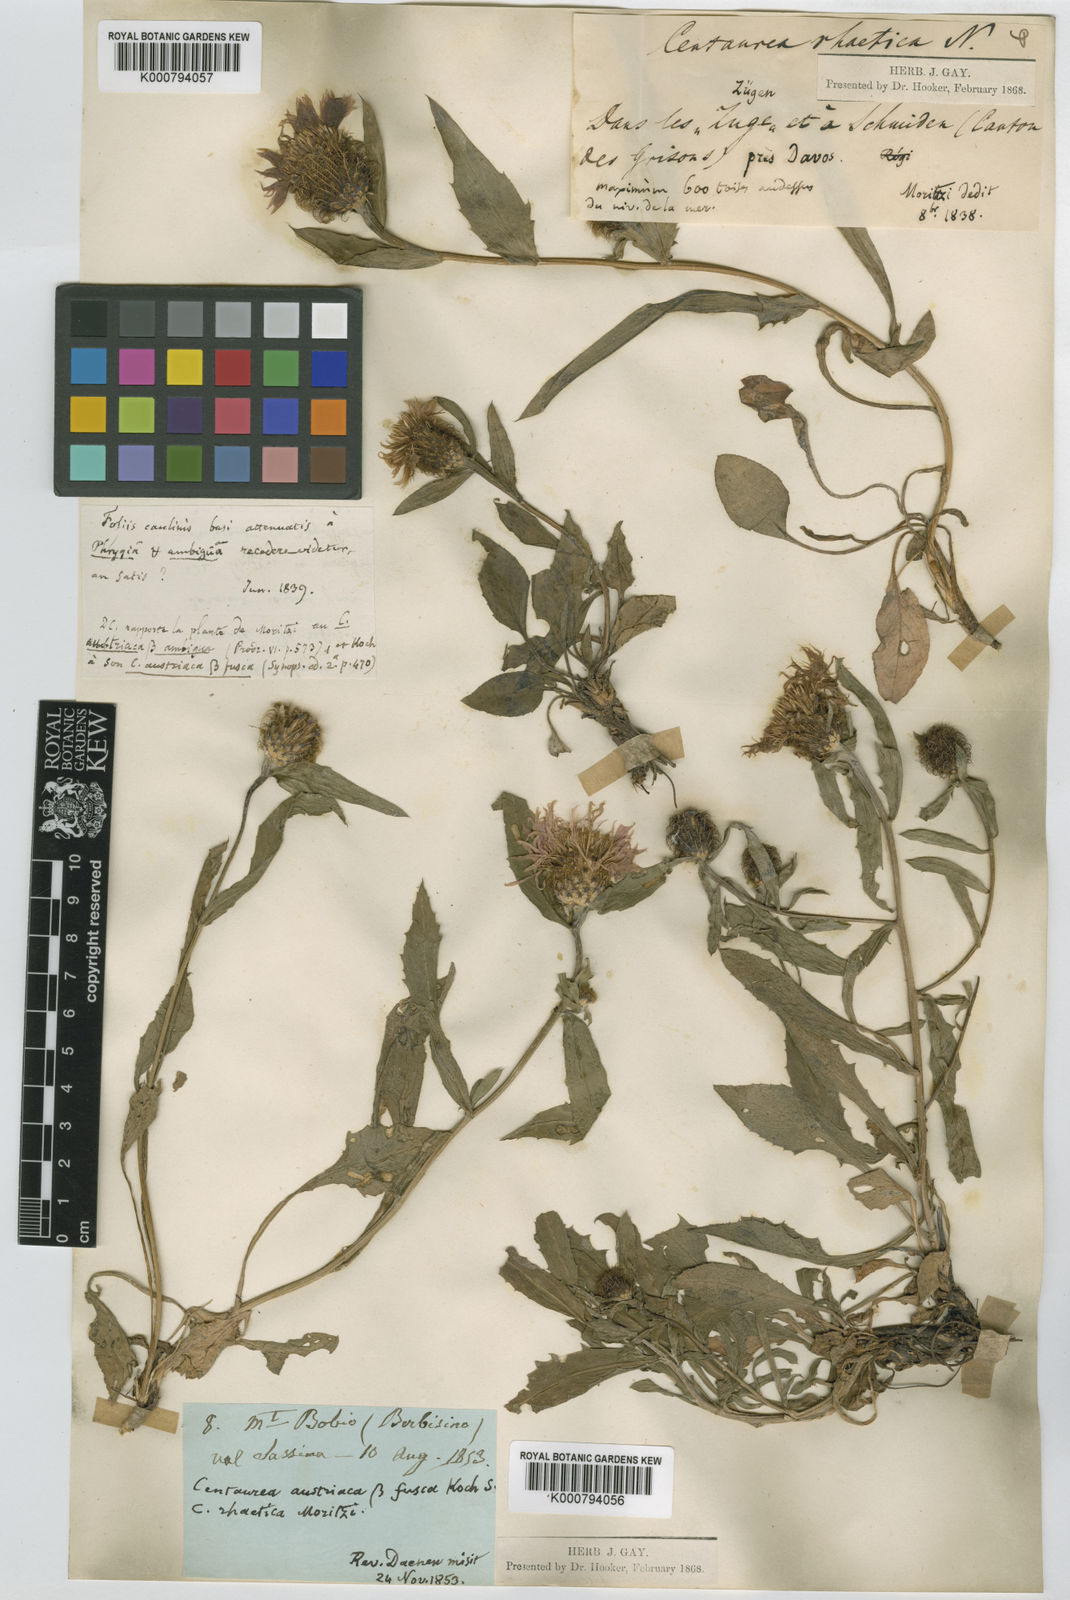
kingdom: Plantae
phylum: Tracheophyta
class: Magnoliopsida
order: Asterales
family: Asteraceae
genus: Centaurea
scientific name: Centaurea rhaetica
